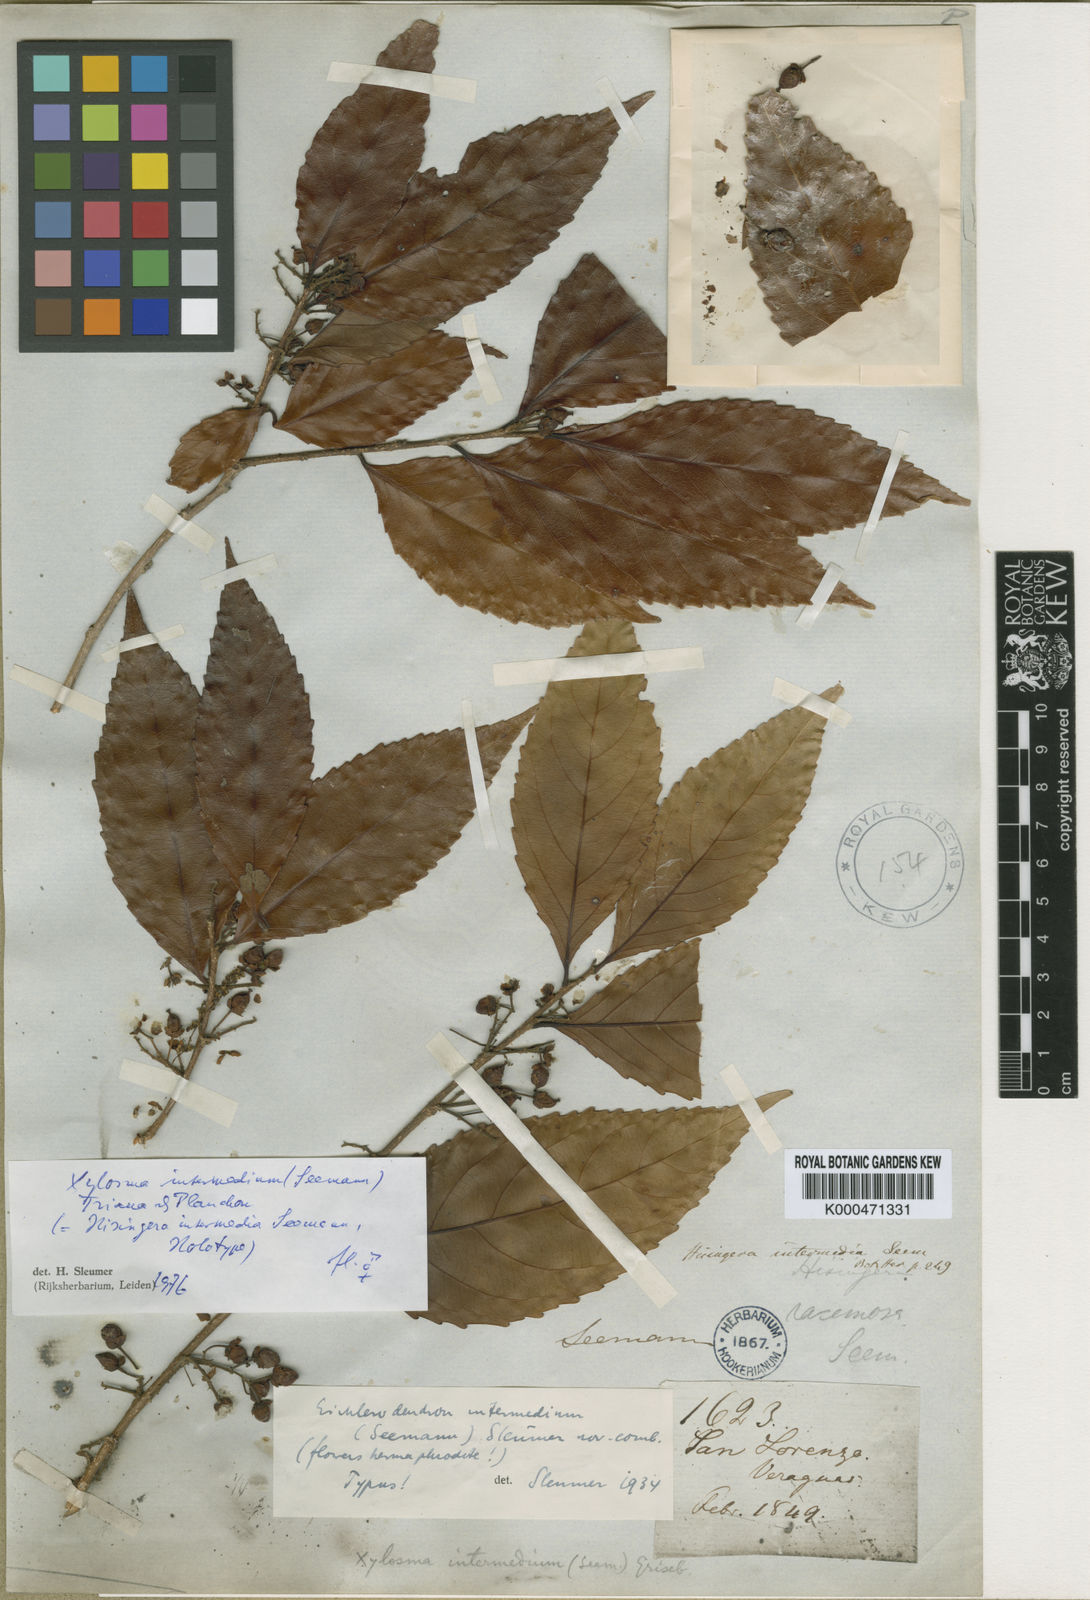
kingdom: Plantae
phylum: Tracheophyta
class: Magnoliopsida
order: Malpighiales
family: Salicaceae
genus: Xylosma
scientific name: Xylosma intermedia
